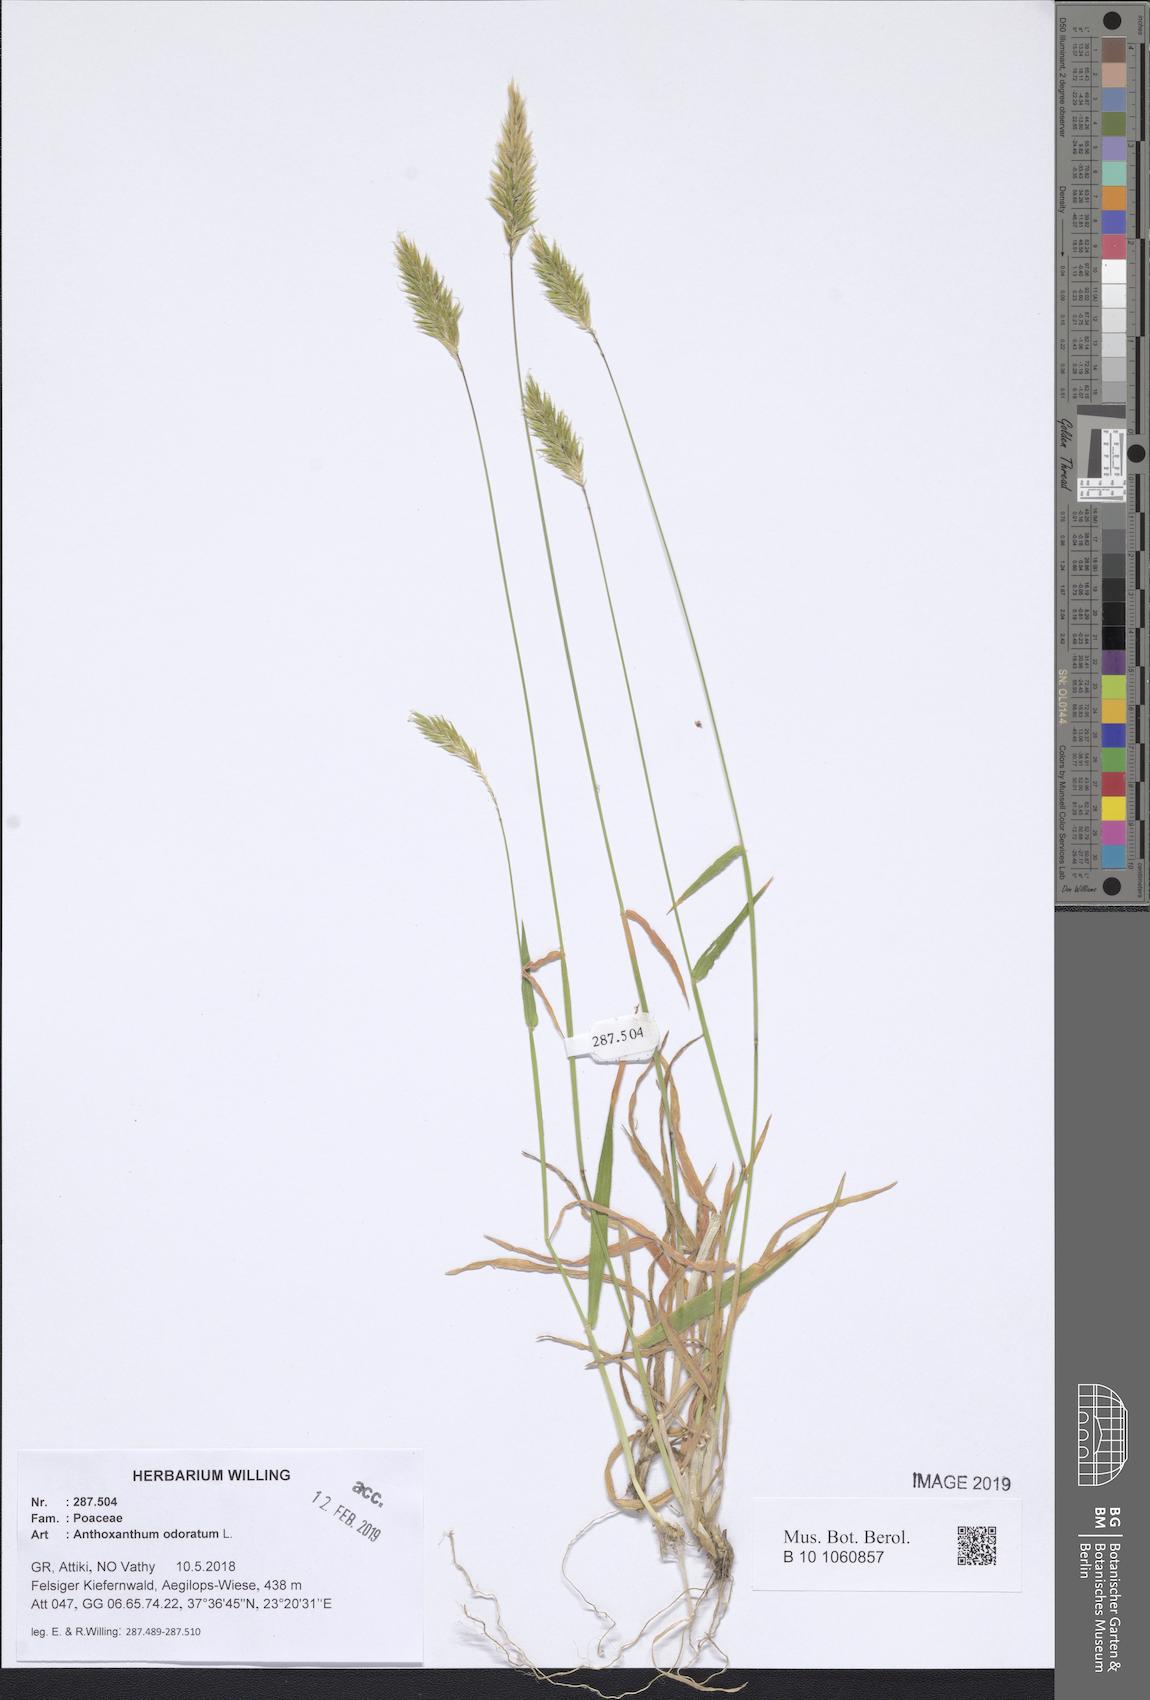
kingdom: Plantae
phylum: Tracheophyta
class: Liliopsida
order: Poales
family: Poaceae
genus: Anthoxanthum
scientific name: Anthoxanthum odoratum
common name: Sweet vernalgrass
